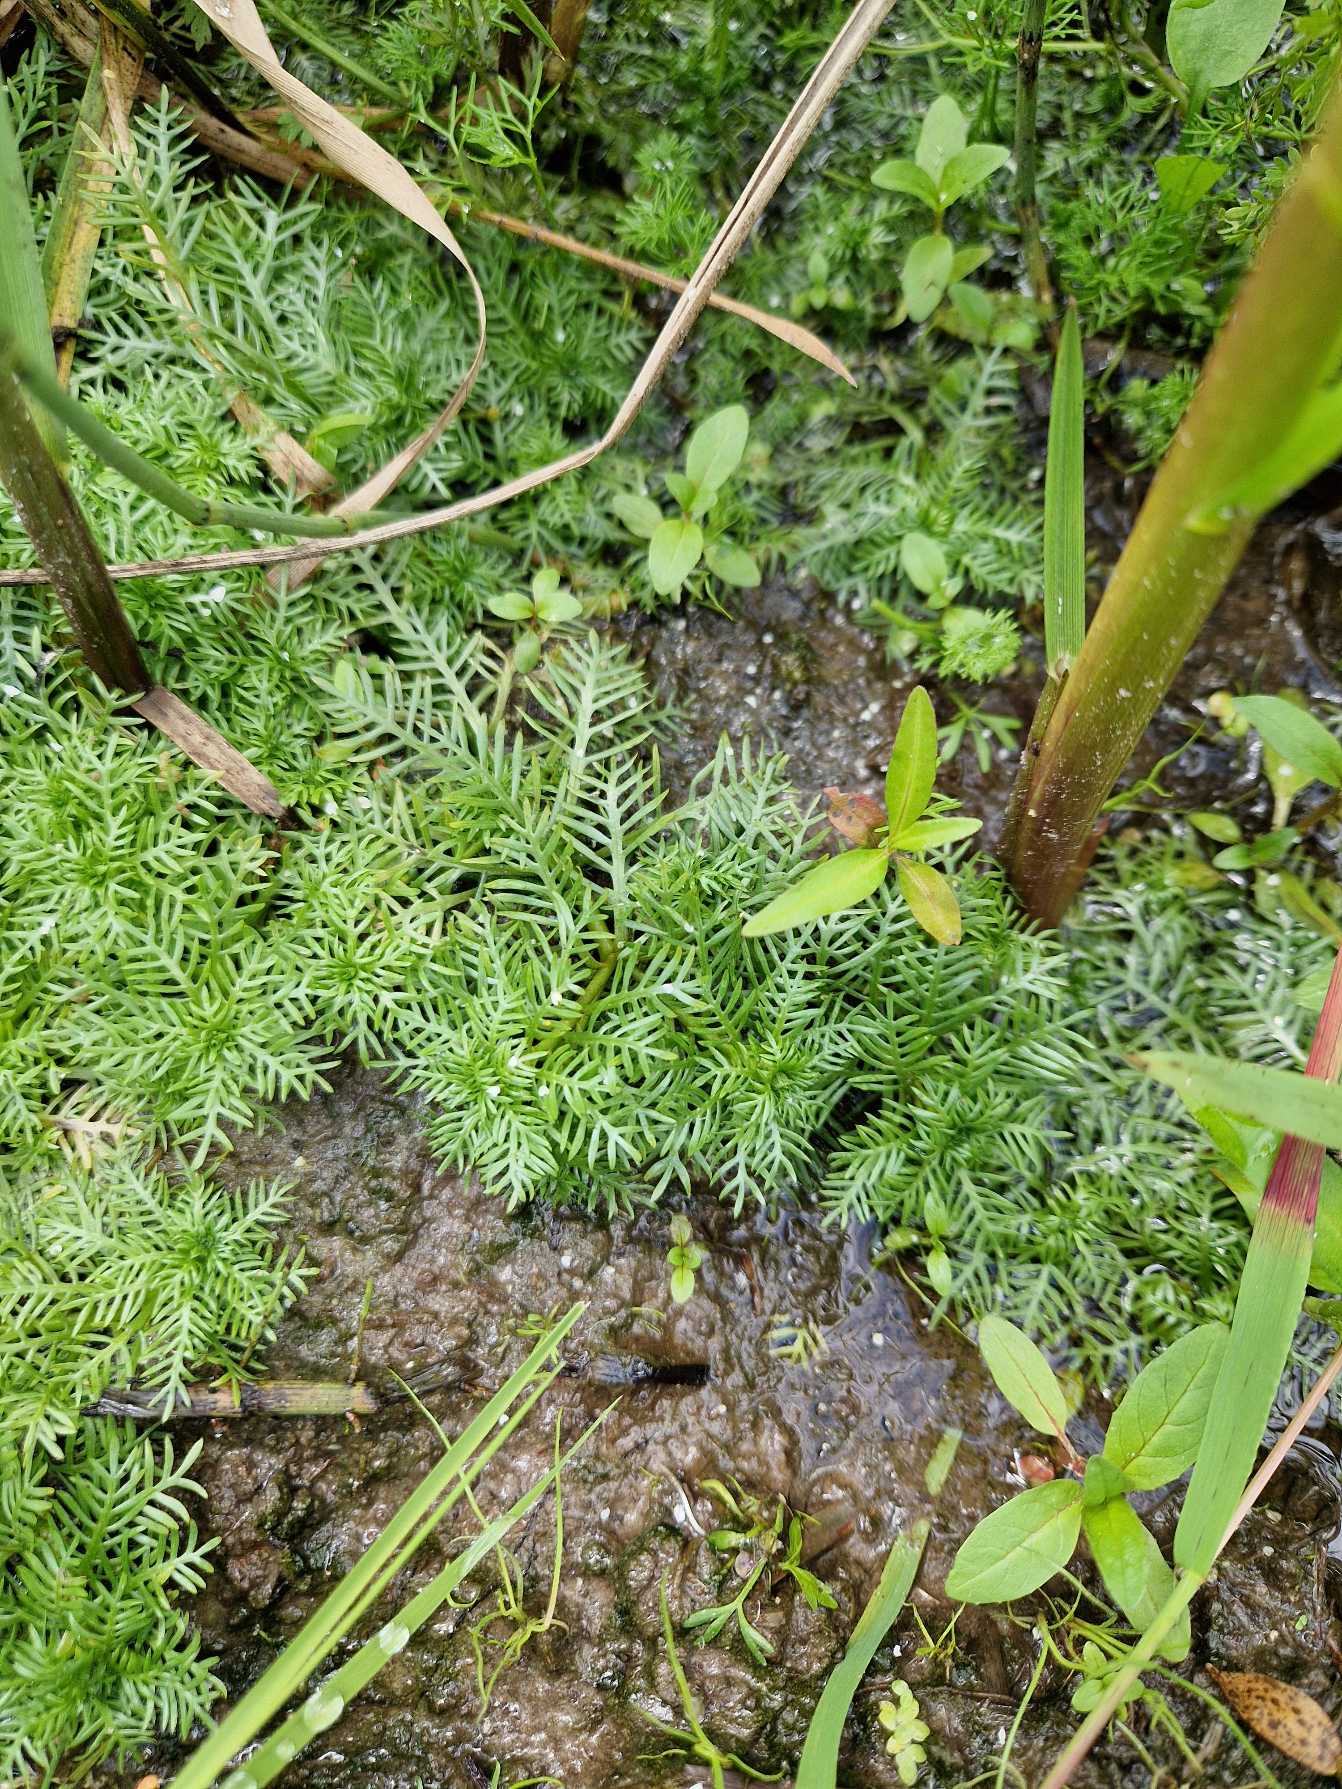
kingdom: Plantae
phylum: Tracheophyta
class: Magnoliopsida
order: Ericales
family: Primulaceae
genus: Hottonia
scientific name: Hottonia palustris
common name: Vandrøllike
